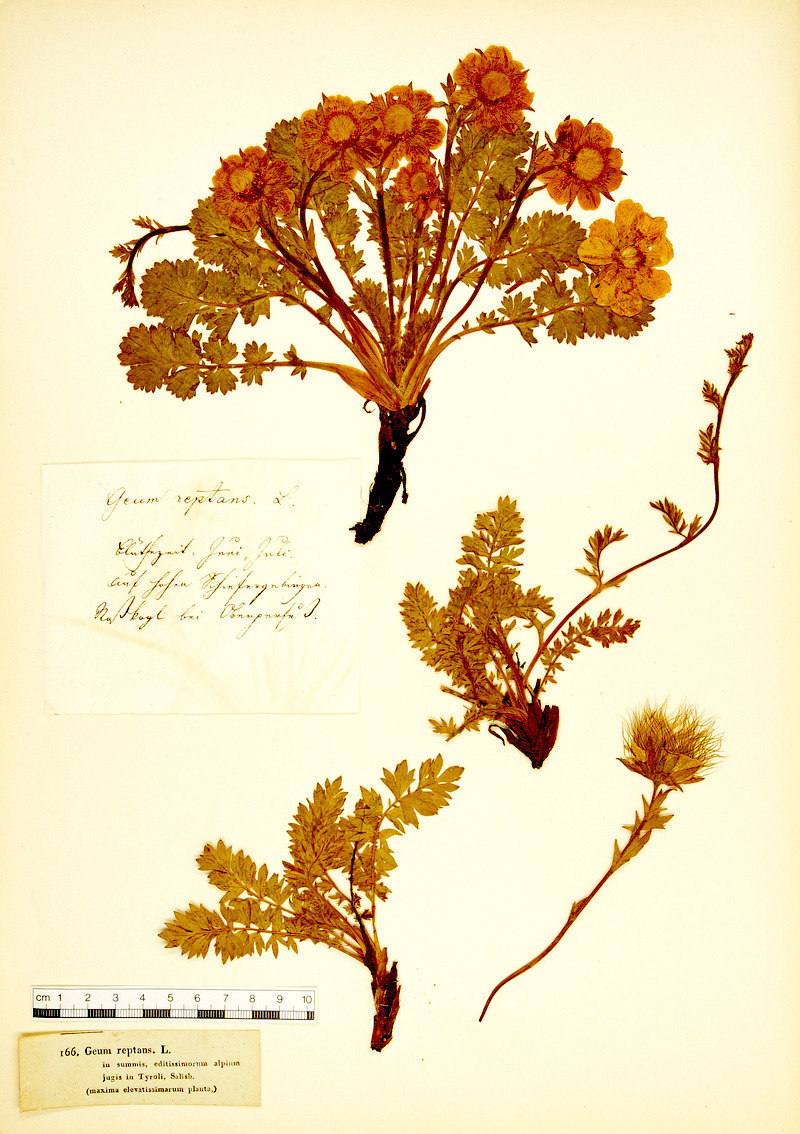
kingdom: Plantae
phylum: Tracheophyta
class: Magnoliopsida
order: Rosales
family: Rosaceae
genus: Geum
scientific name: Geum reptans
